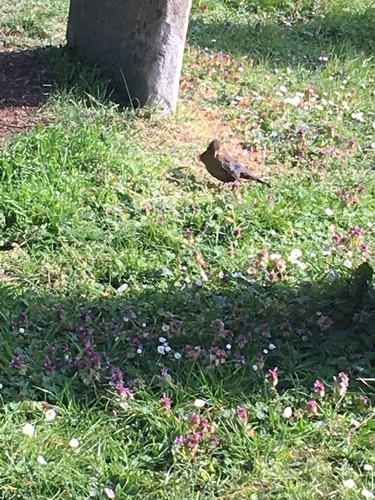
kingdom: Animalia
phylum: Chordata
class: Aves
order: Passeriformes
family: Turdidae
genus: Turdus
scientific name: Turdus merula
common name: Common blackbird
